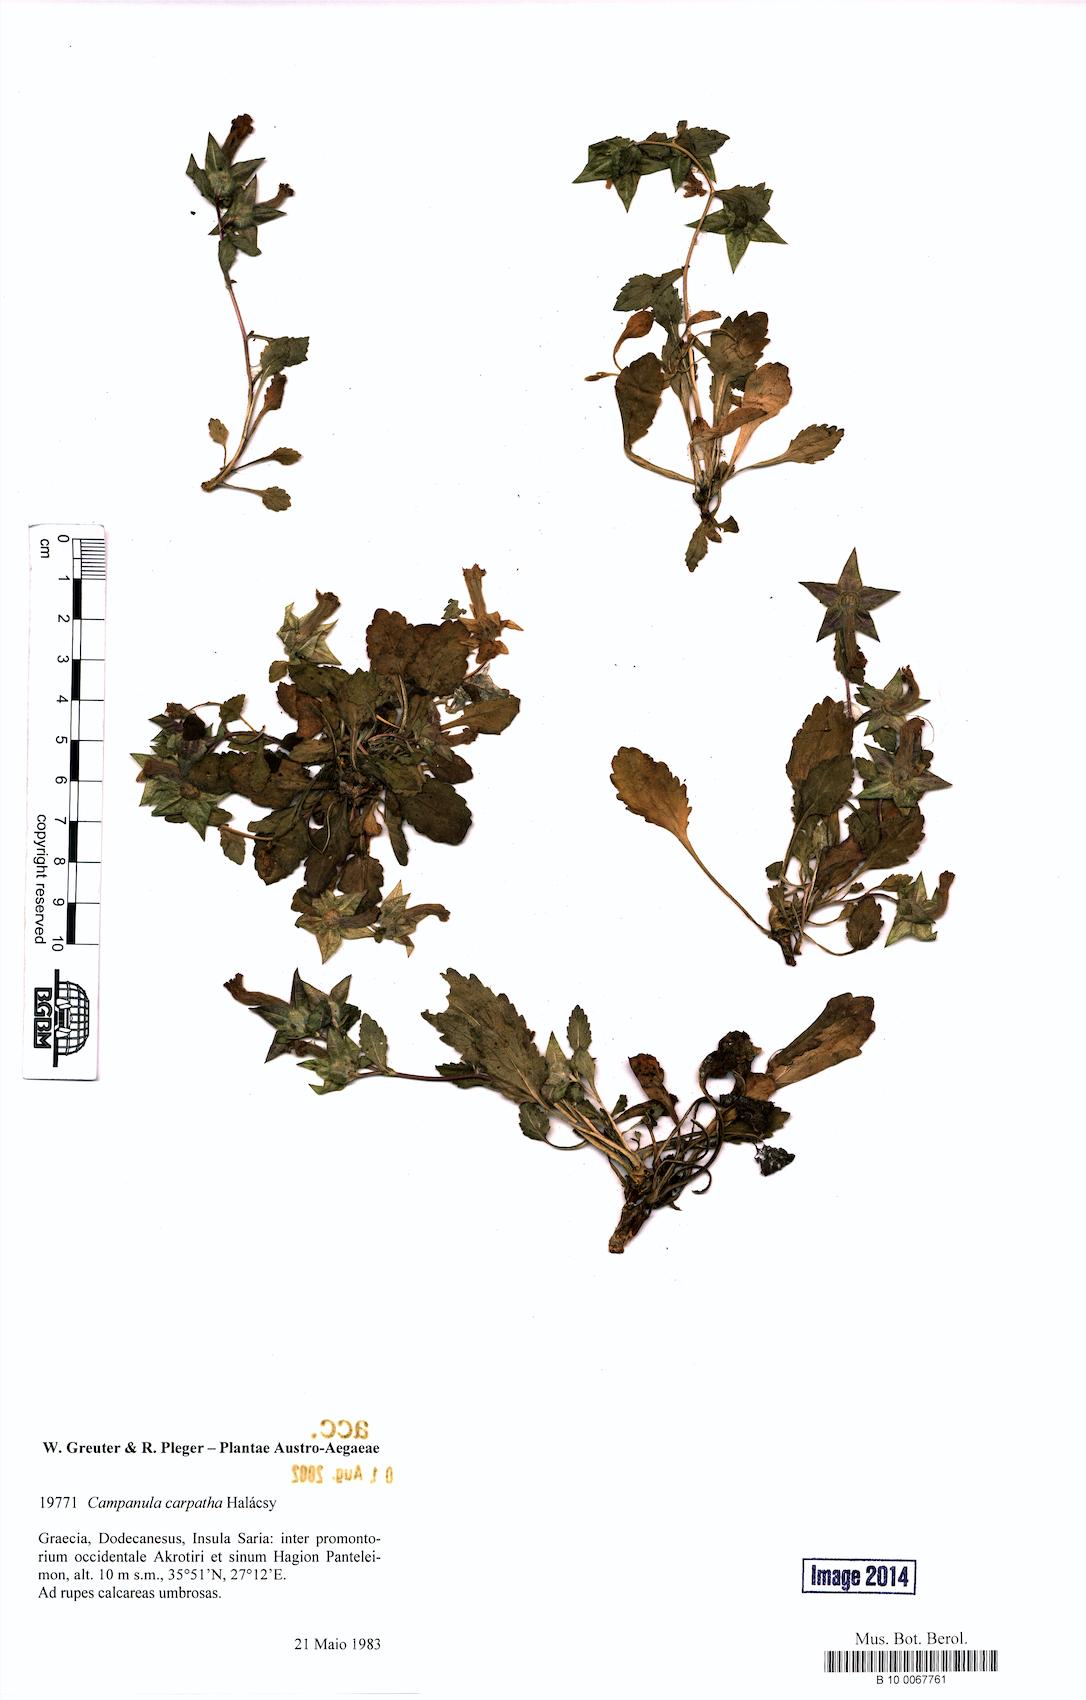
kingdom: Plantae
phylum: Tracheophyta
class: Magnoliopsida
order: Asterales
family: Campanulaceae
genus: Campanula
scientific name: Campanula carpatha
